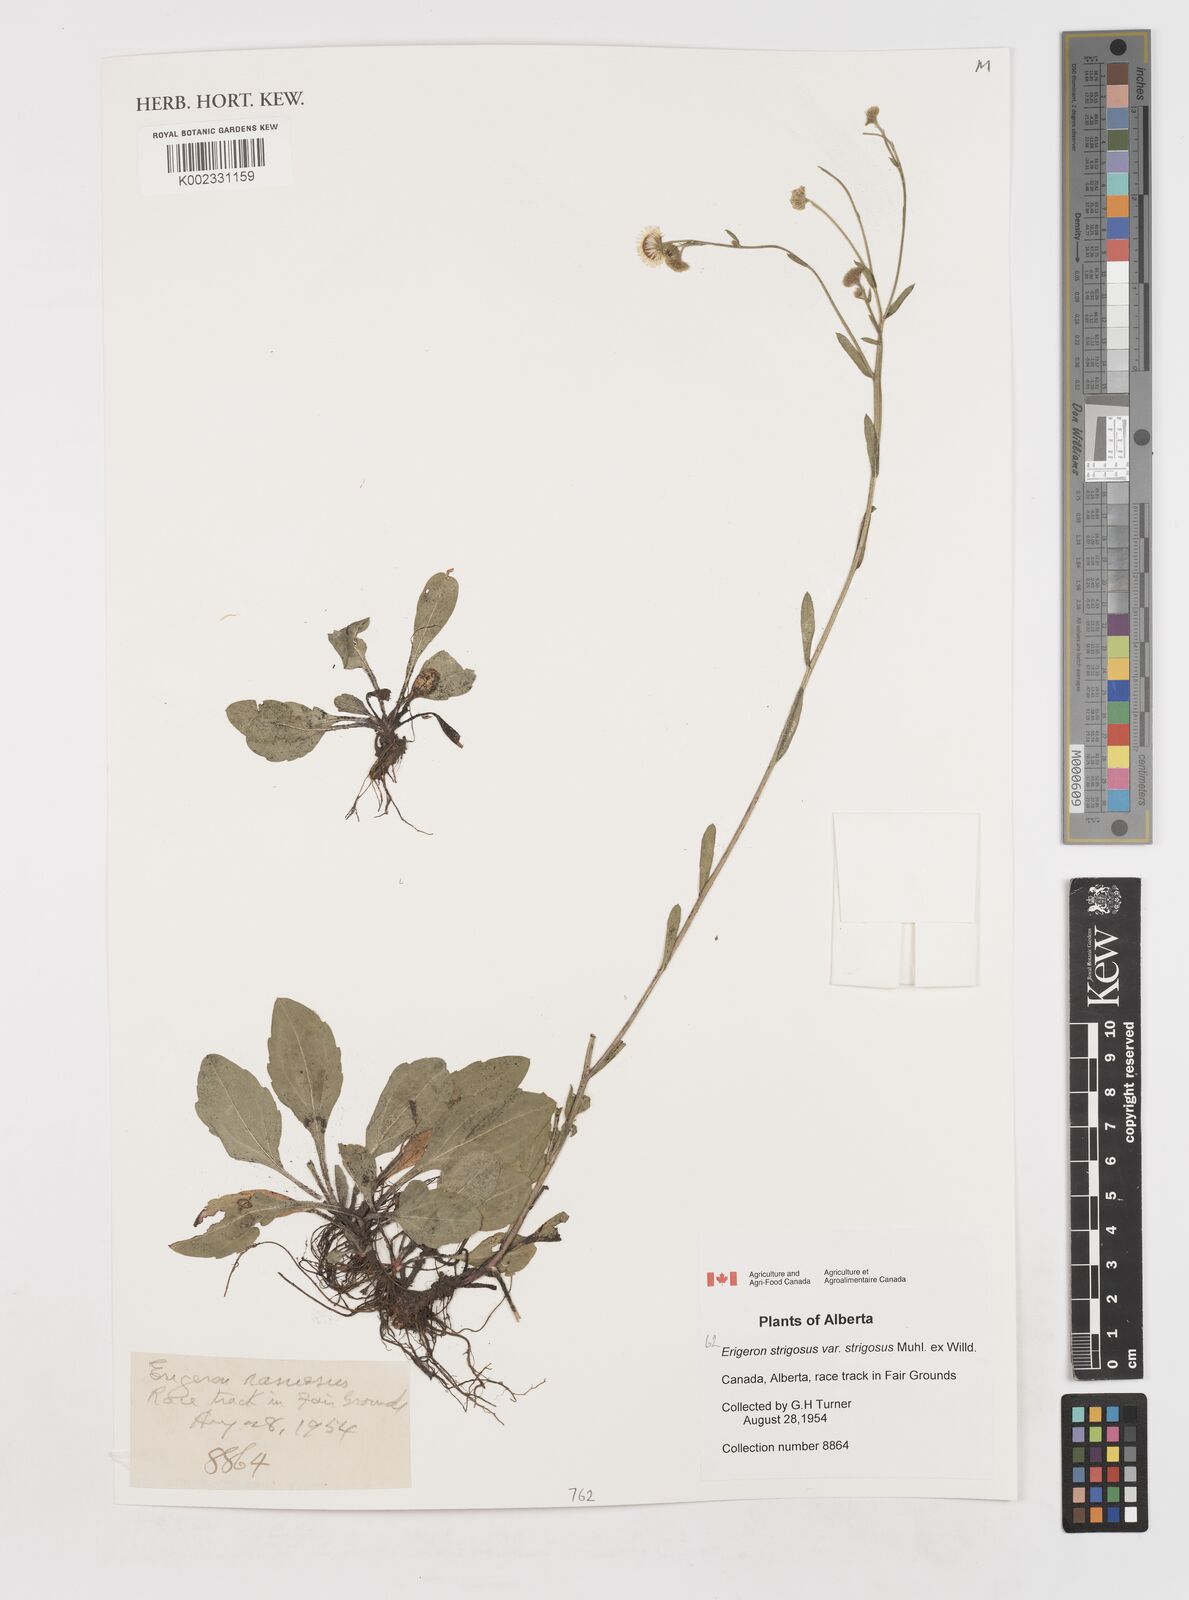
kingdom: Plantae
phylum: Tracheophyta
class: Magnoliopsida
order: Asterales
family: Asteraceae
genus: Erigeron
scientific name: Erigeron strigosus
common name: Common eastern fleabane
